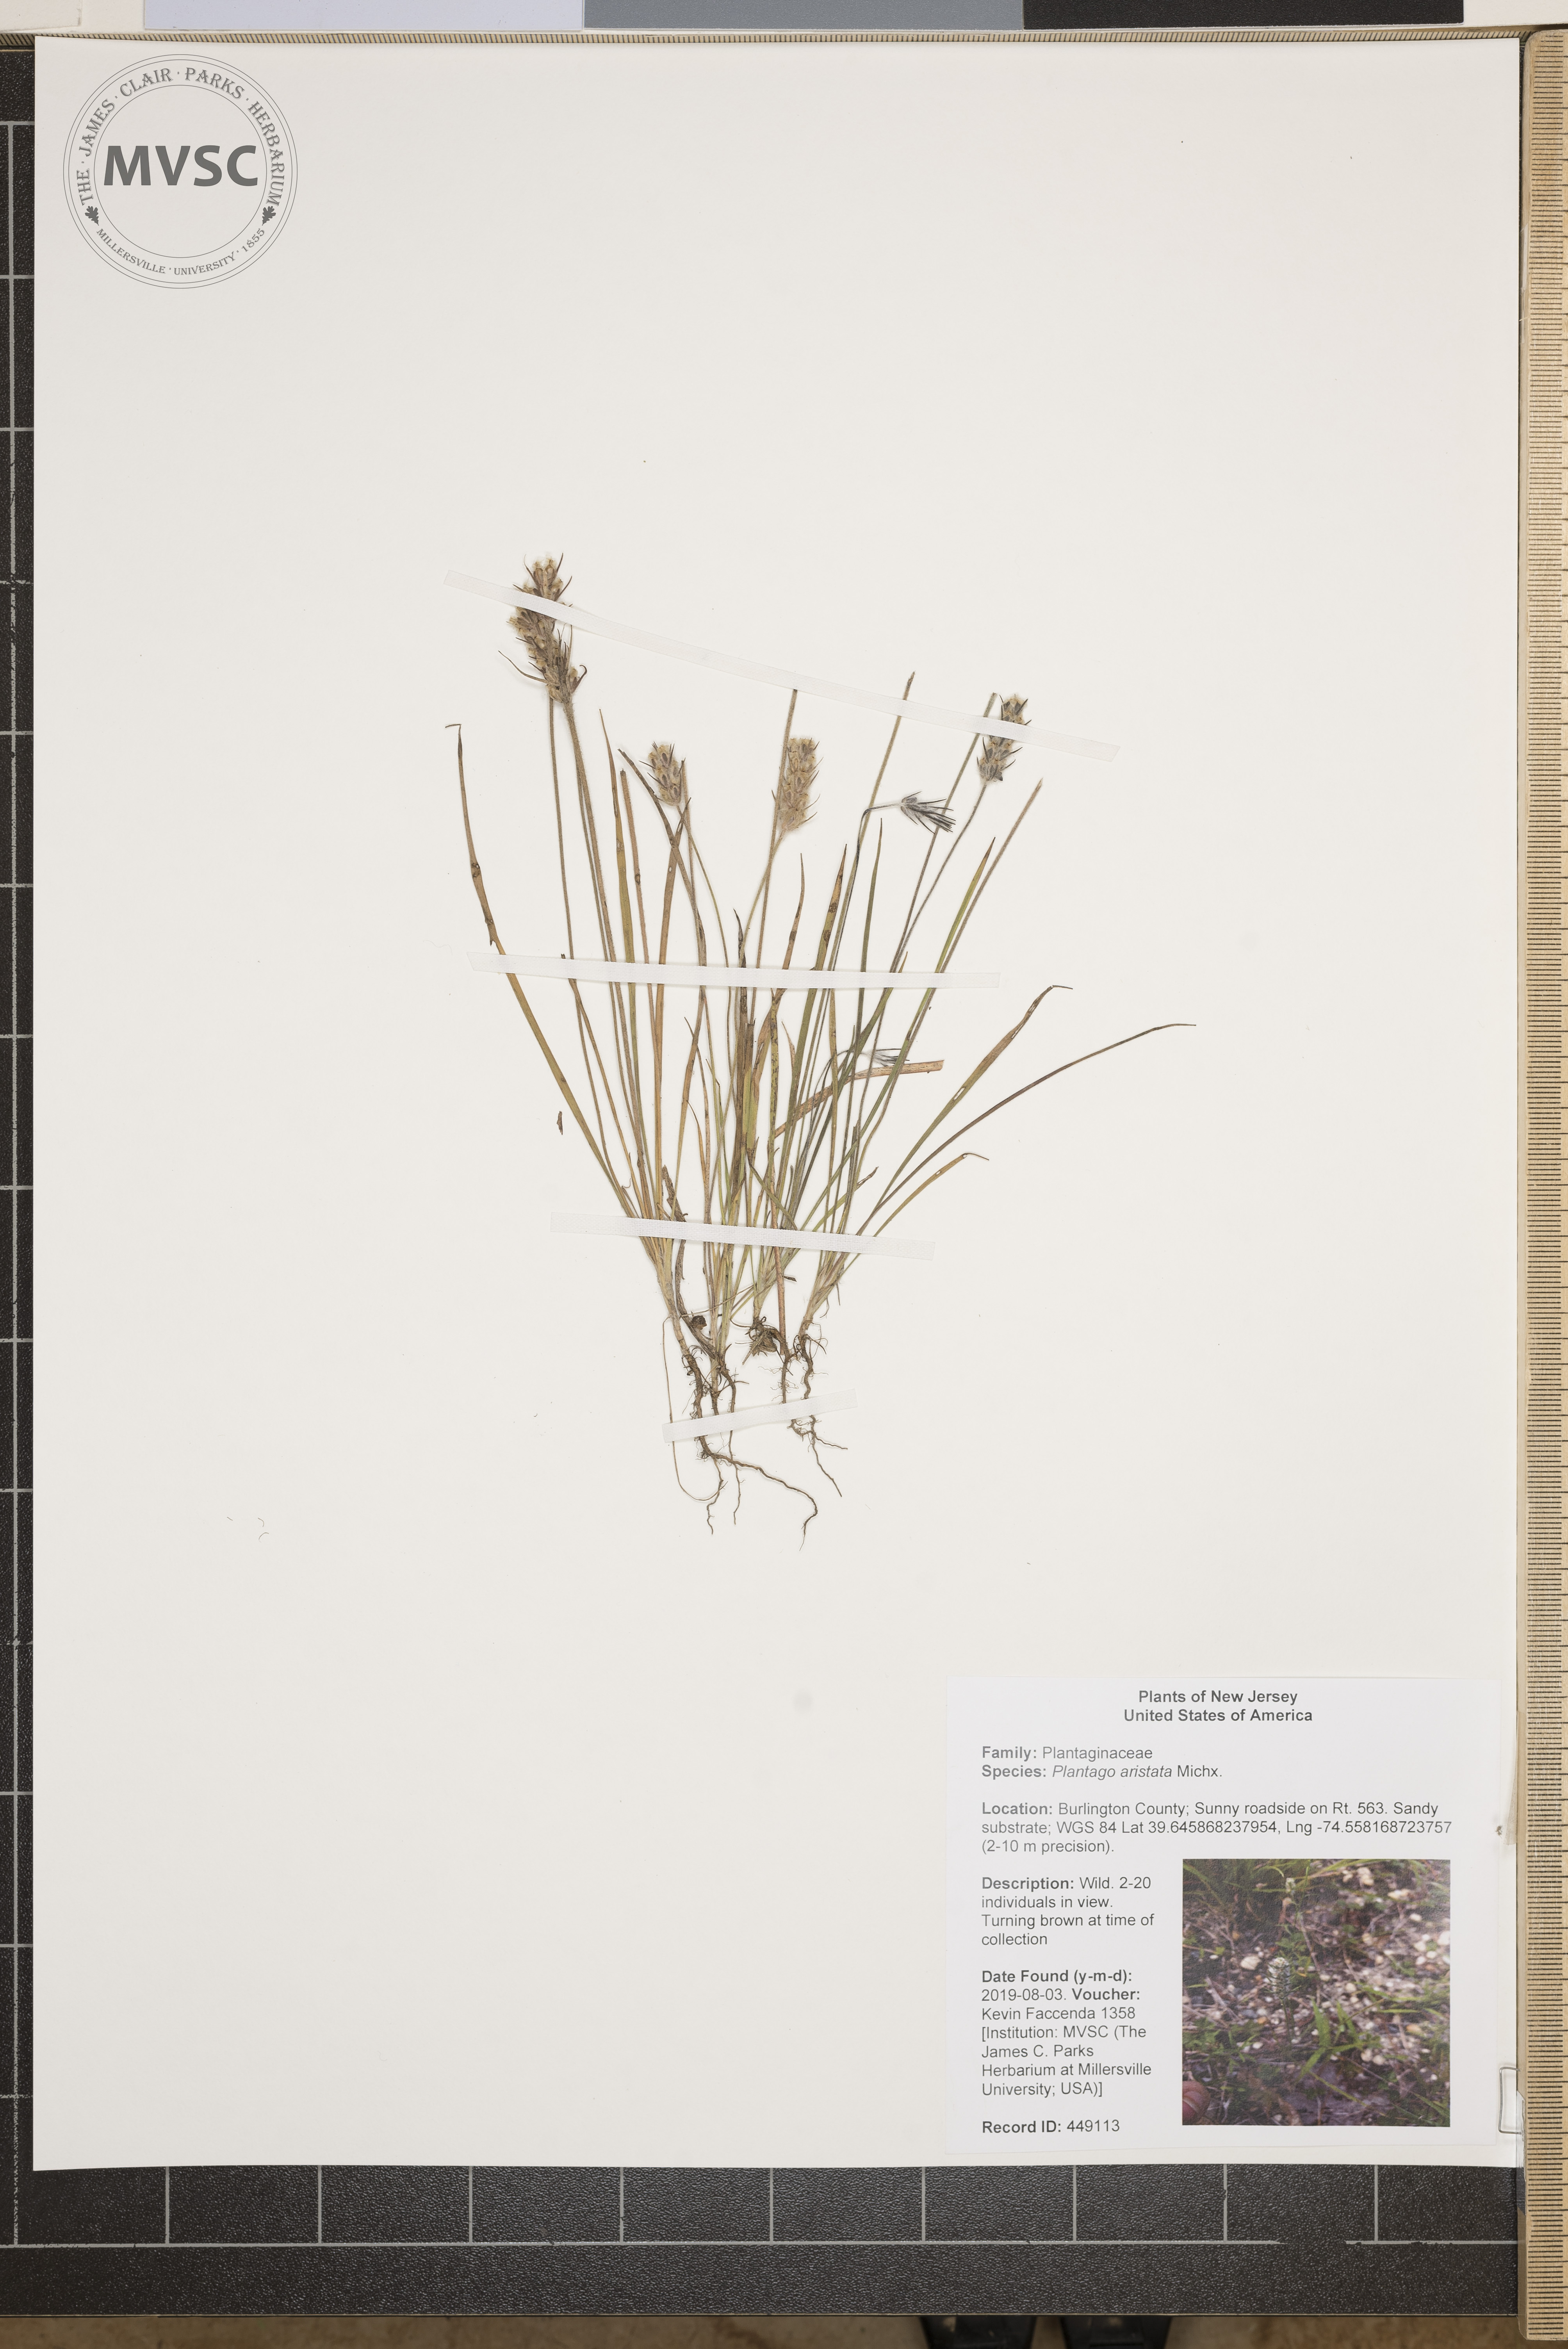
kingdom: Plantae
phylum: Tracheophyta
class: Magnoliopsida
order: Lamiales
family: Plantaginaceae
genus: Plantago
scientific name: Plantago aristata
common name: Bracted plantain
